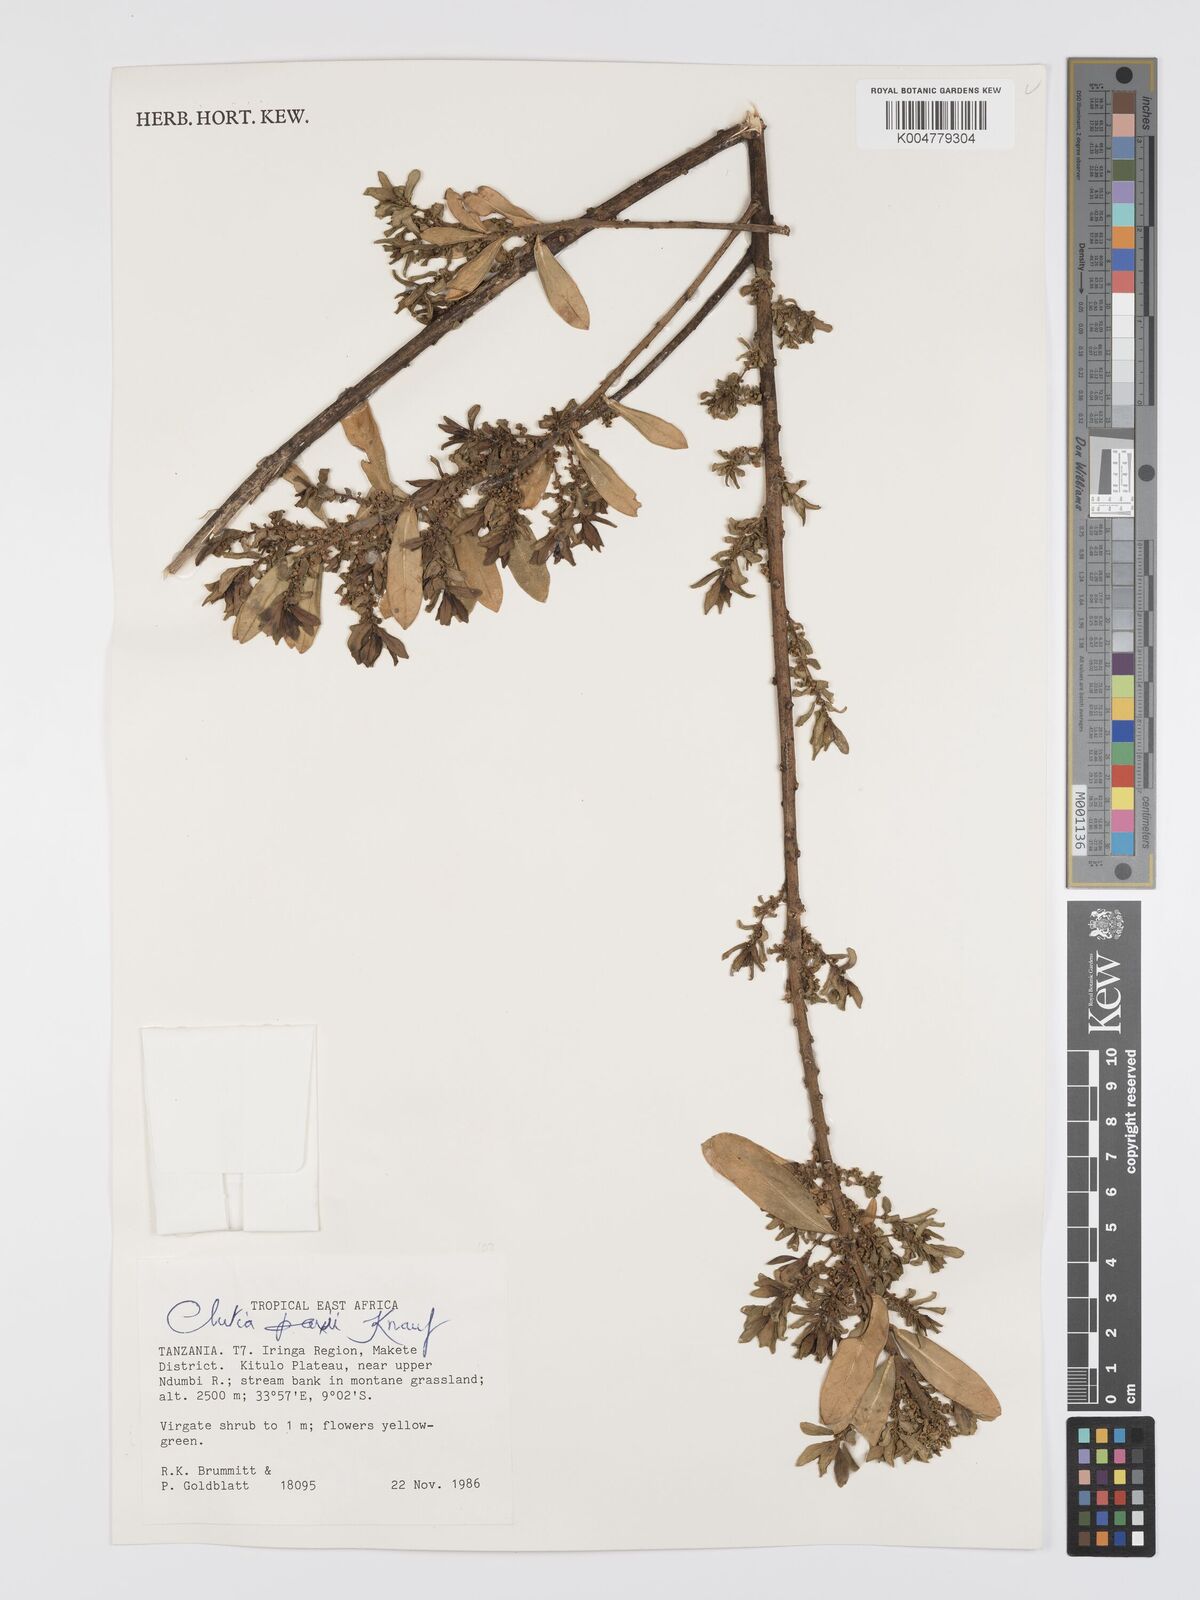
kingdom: Plantae
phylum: Tracheophyta
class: Magnoliopsida
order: Malpighiales
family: Peraceae
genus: Clutia
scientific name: Clutia paxii
